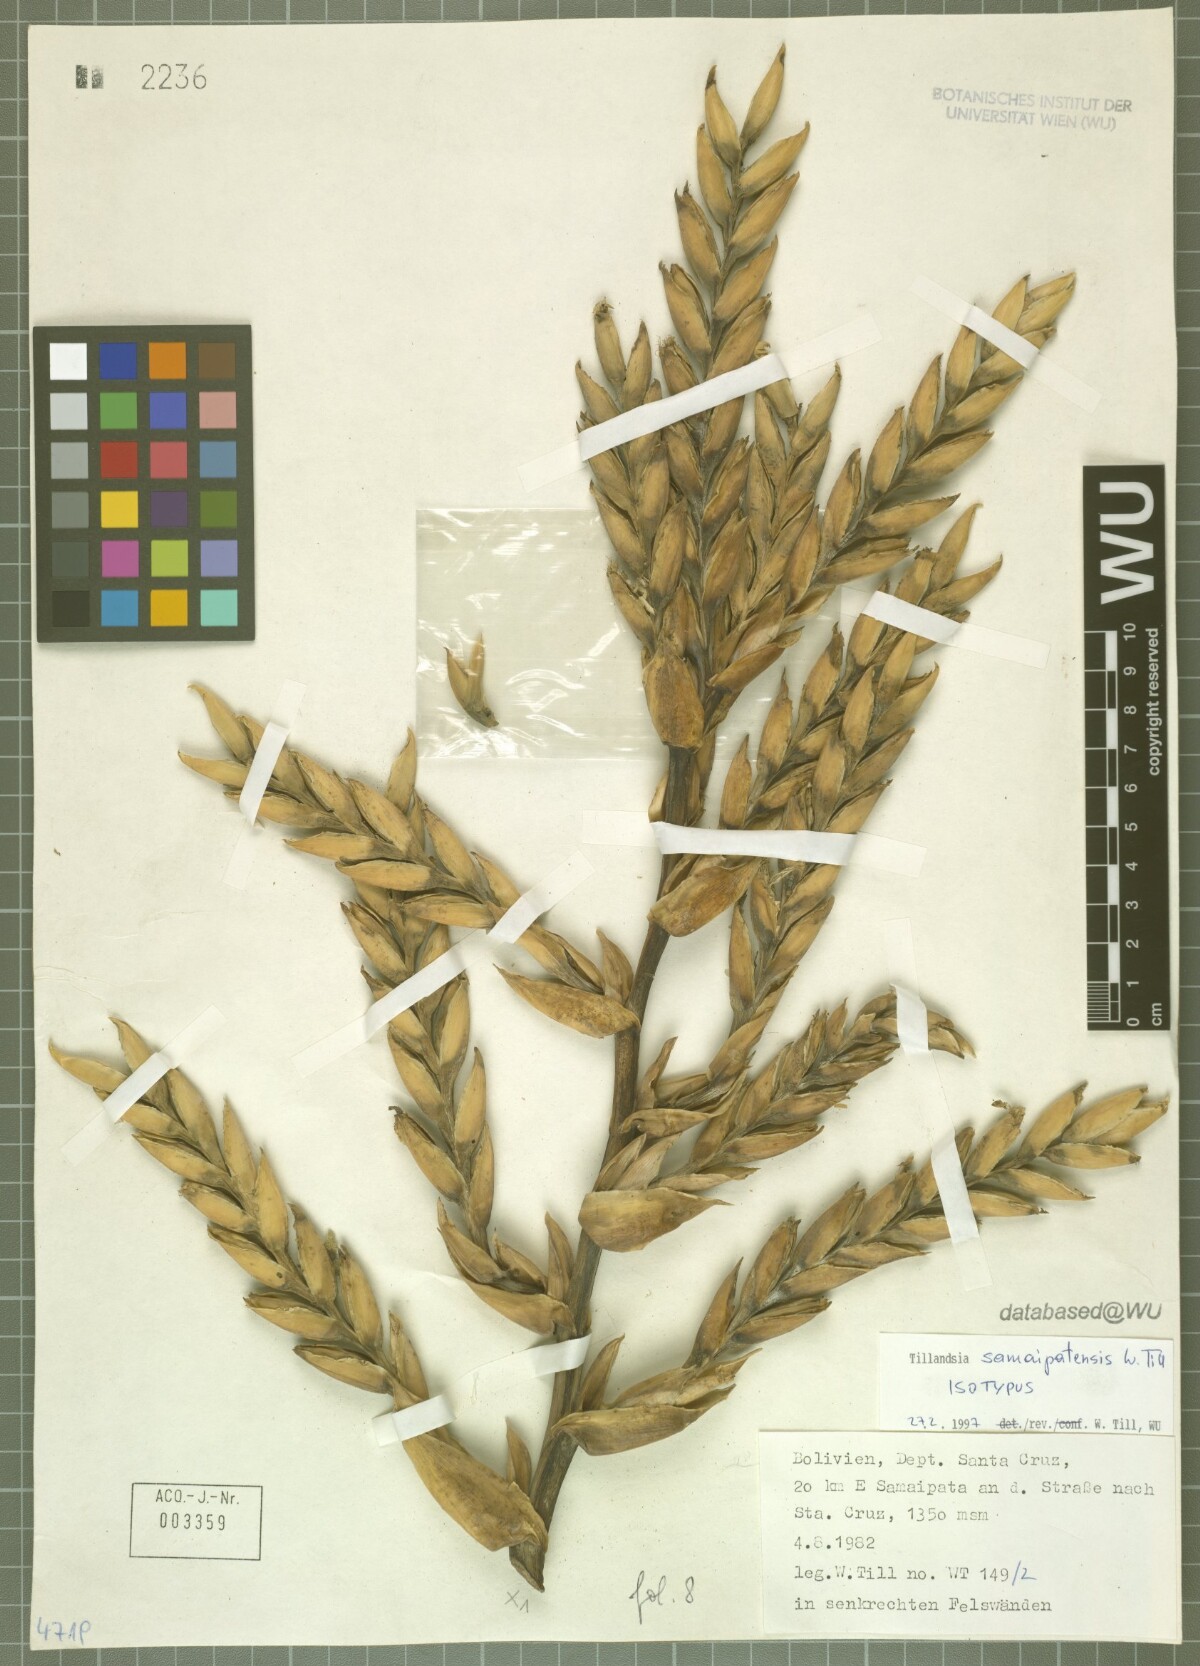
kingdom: Plantae
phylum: Tracheophyta
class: Liliopsida
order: Poales
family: Bromeliaceae
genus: Tillandsia
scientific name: Tillandsia samaipatensis
